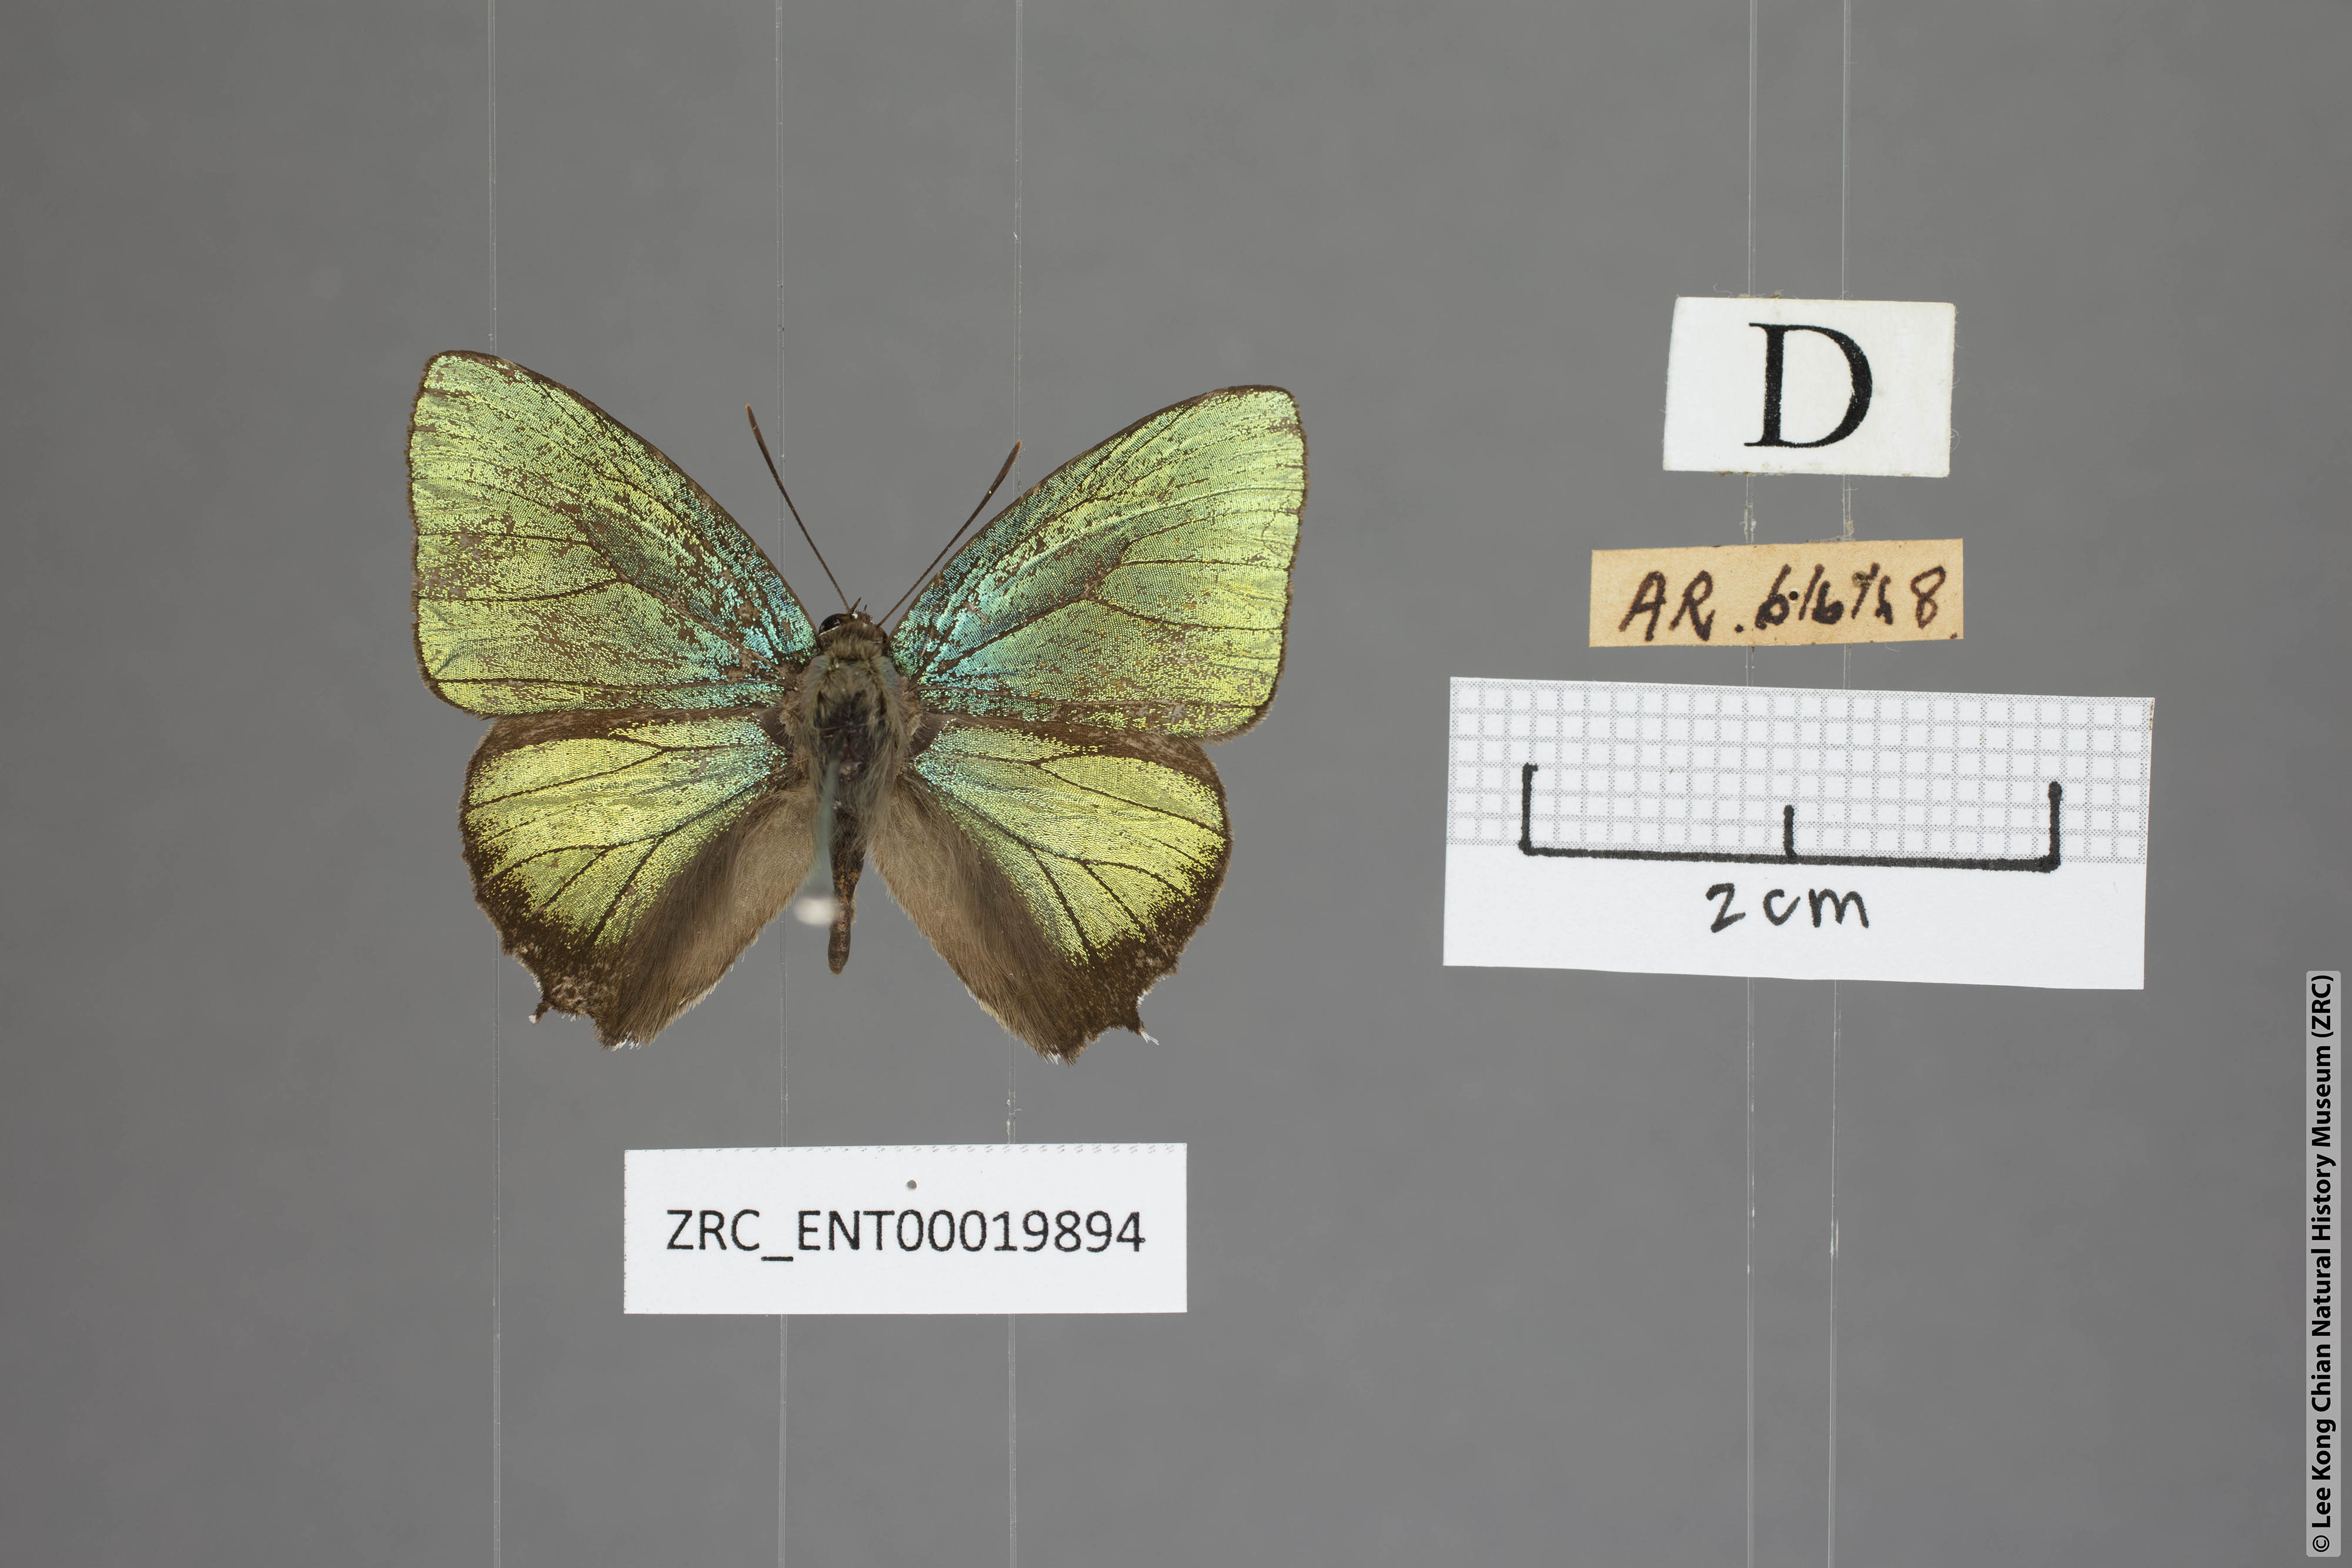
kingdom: Animalia
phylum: Arthropoda
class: Insecta
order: Lepidoptera
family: Lycaenidae
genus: Arhopala
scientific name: Arhopala trogon
